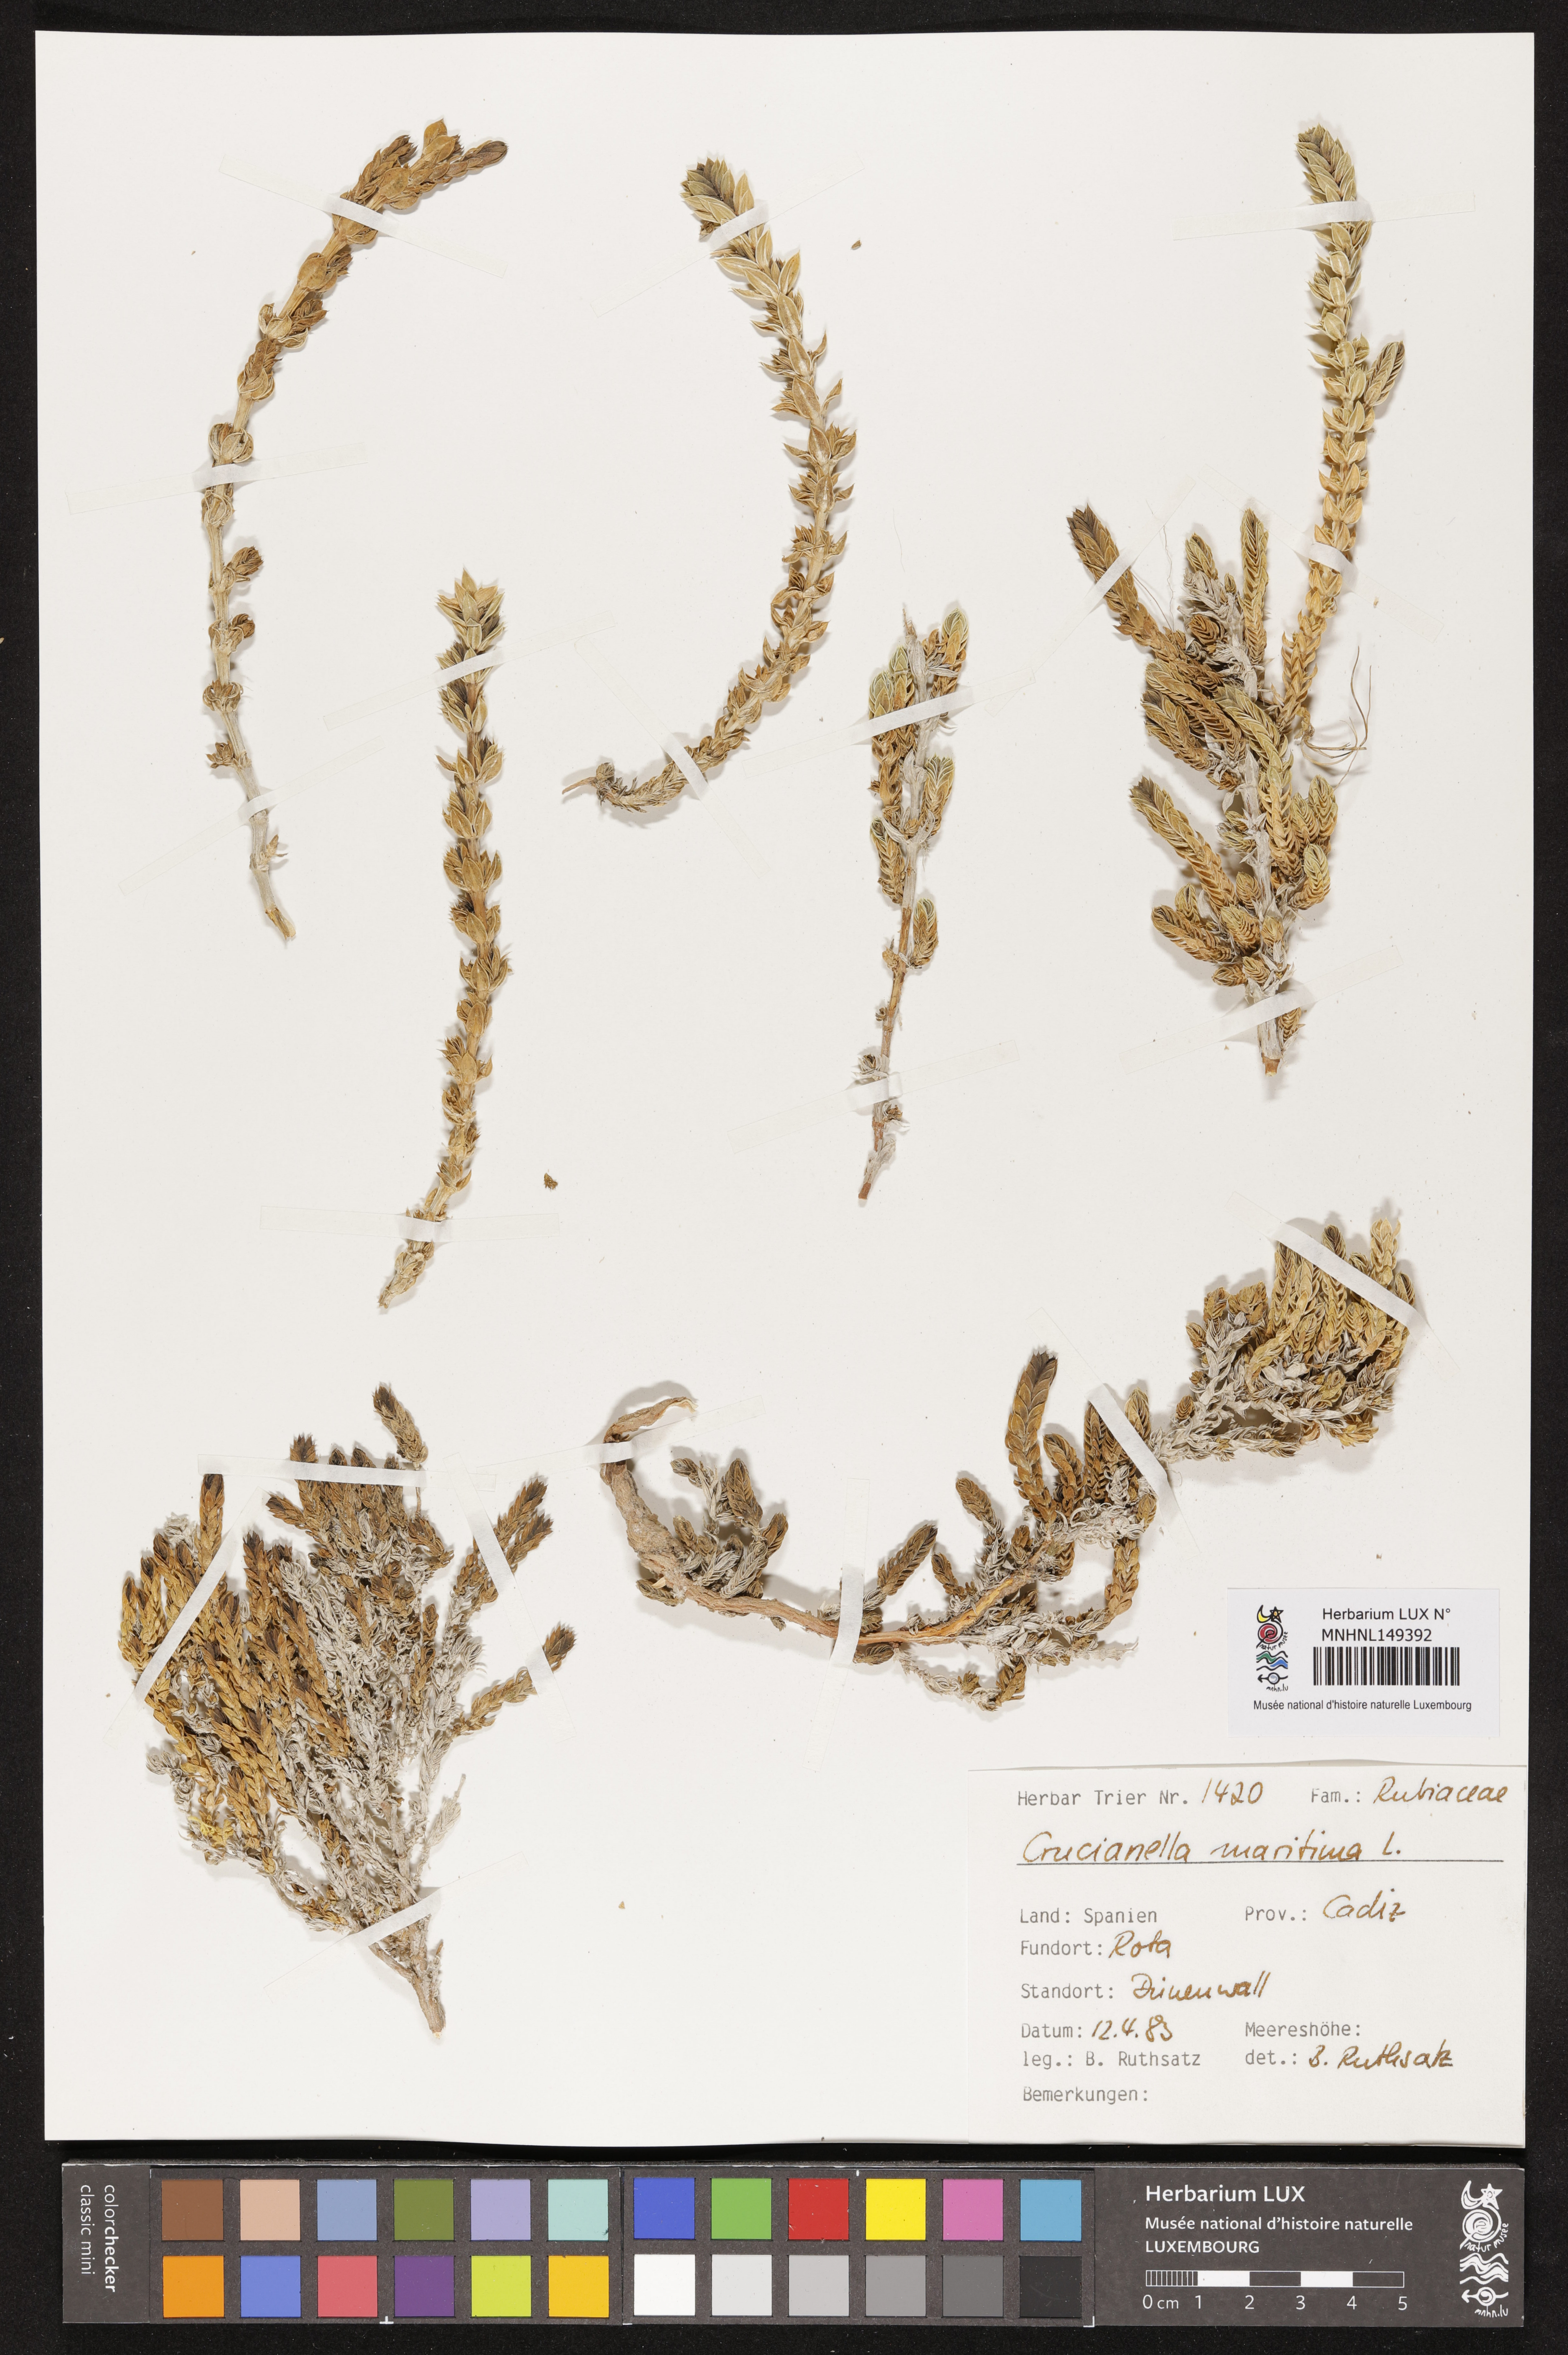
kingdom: Plantae
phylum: Tracheophyta
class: Magnoliopsida
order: Gentianales
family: Rubiaceae
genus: Crucianella
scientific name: Crucianella maritima
